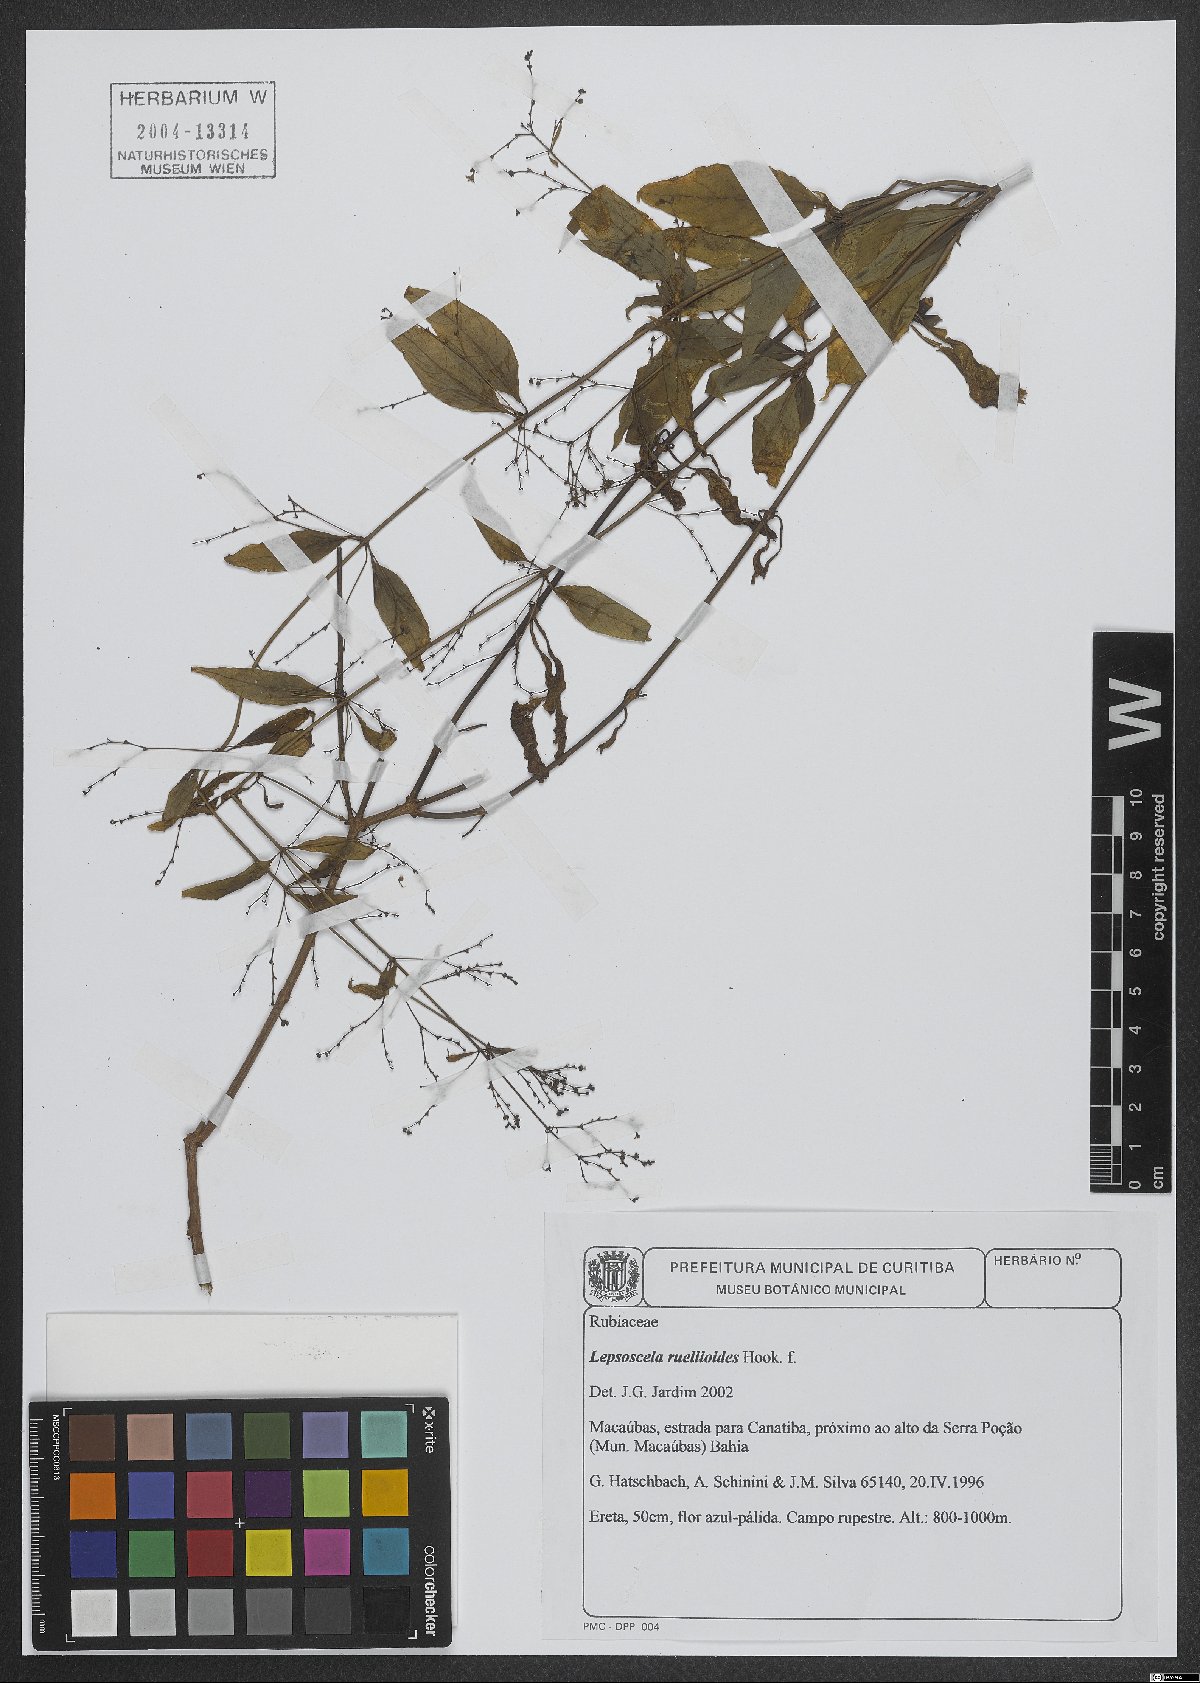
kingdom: Plantae
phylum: Tracheophyta
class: Magnoliopsida
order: Gentianales
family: Rubiaceae
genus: Leptoscela
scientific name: Leptoscela ruellioides
